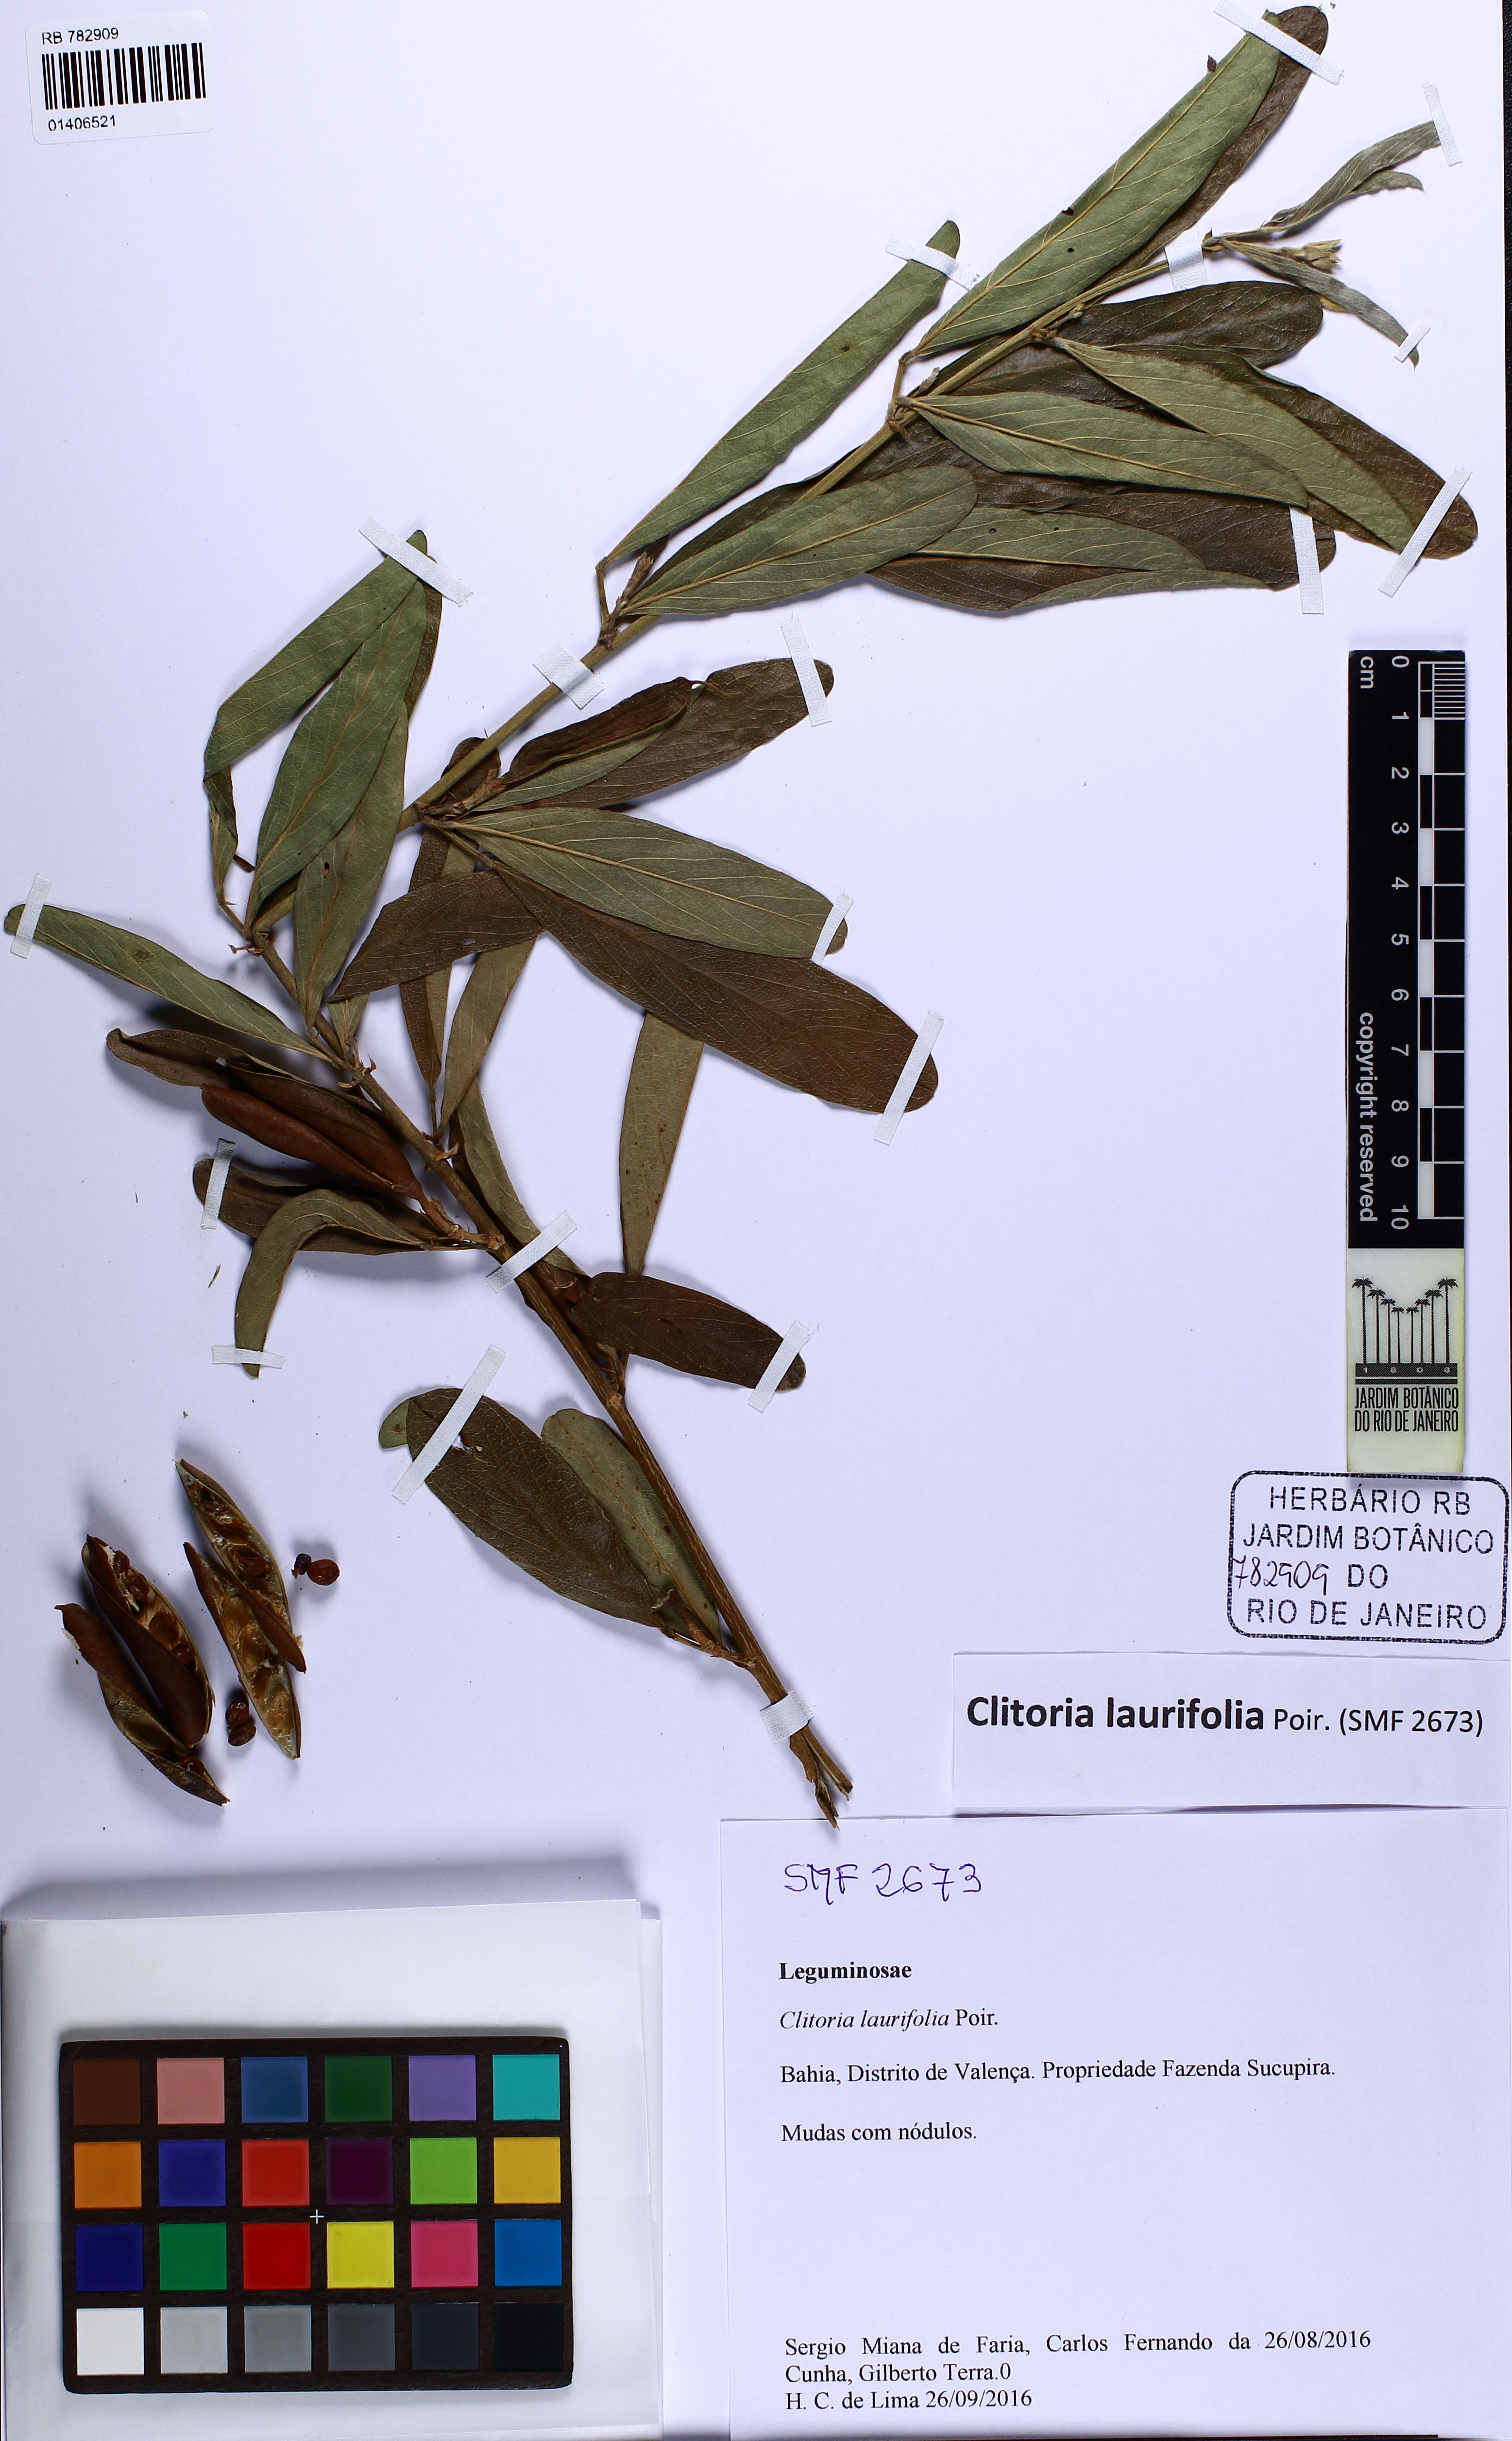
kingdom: Plantae
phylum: Tracheophyta
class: Magnoliopsida
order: Fabales
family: Fabaceae
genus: Clitoria
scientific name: Clitoria laurifolia
